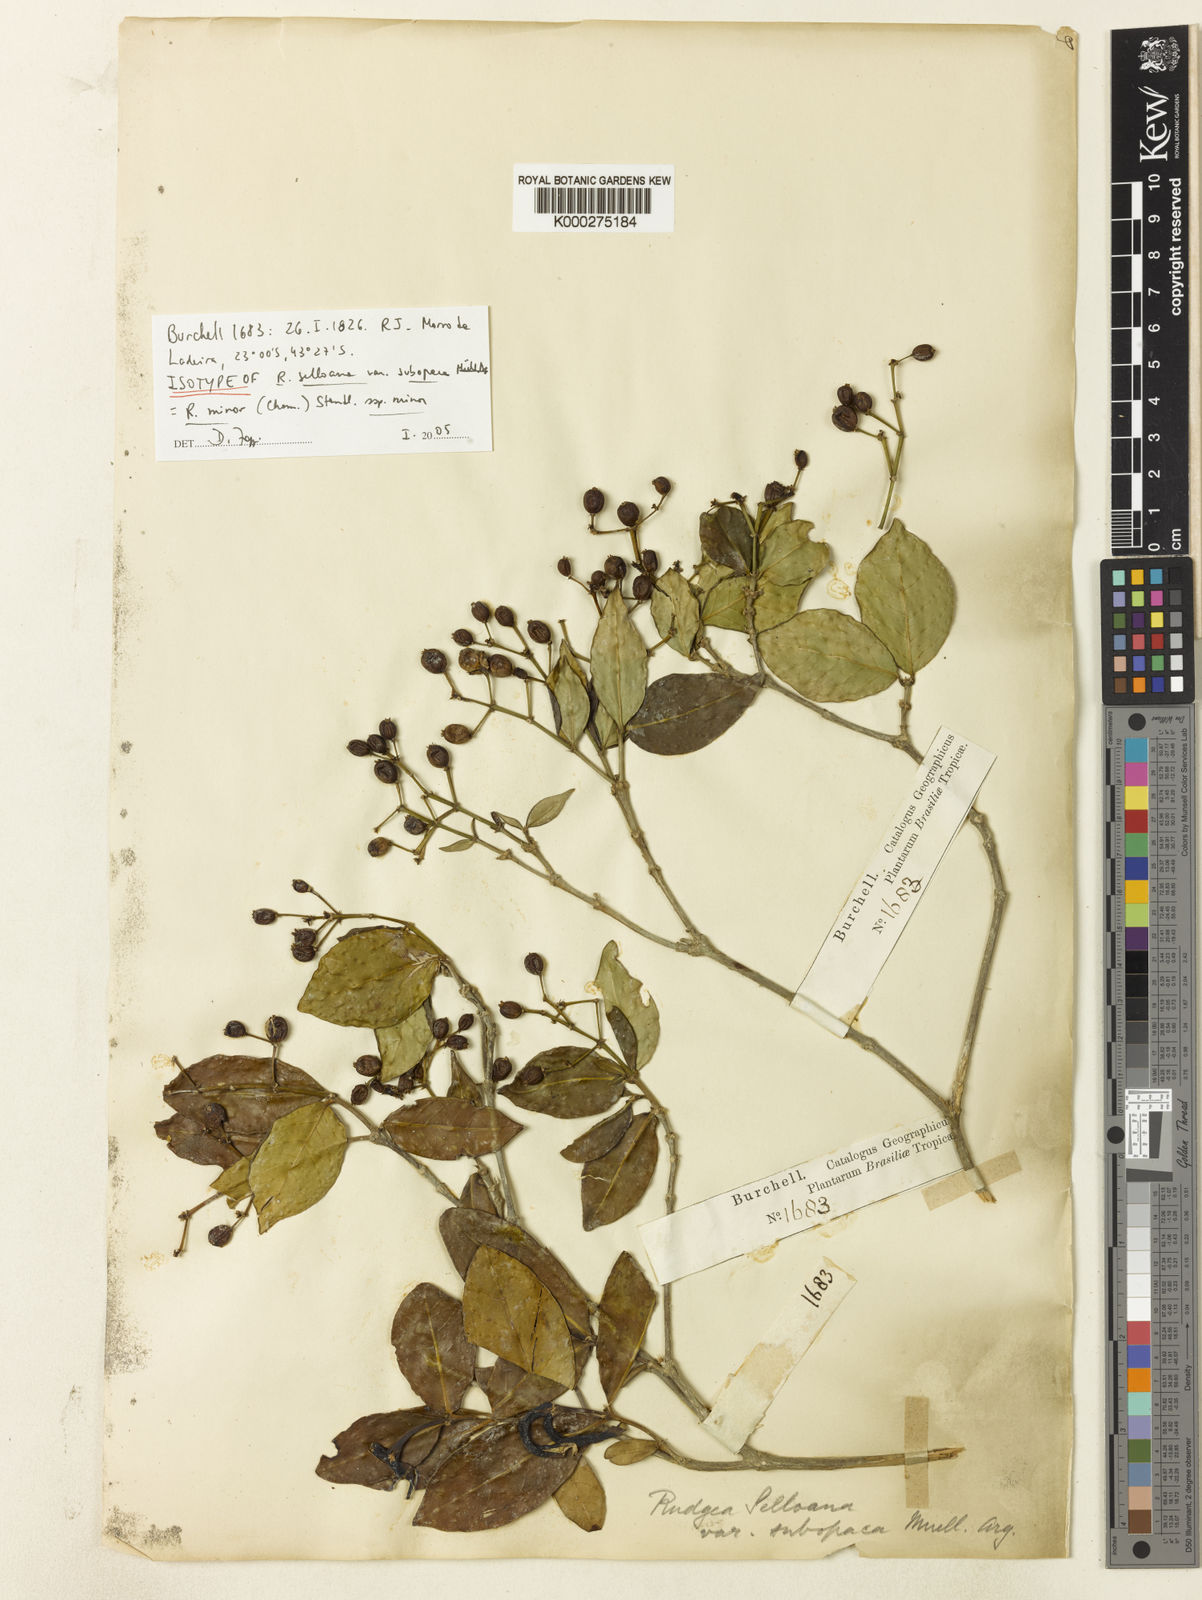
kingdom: Plantae
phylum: Tracheophyta
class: Magnoliopsida
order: Gentianales
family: Rubiaceae
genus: Rudgea
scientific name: Rudgea minor
